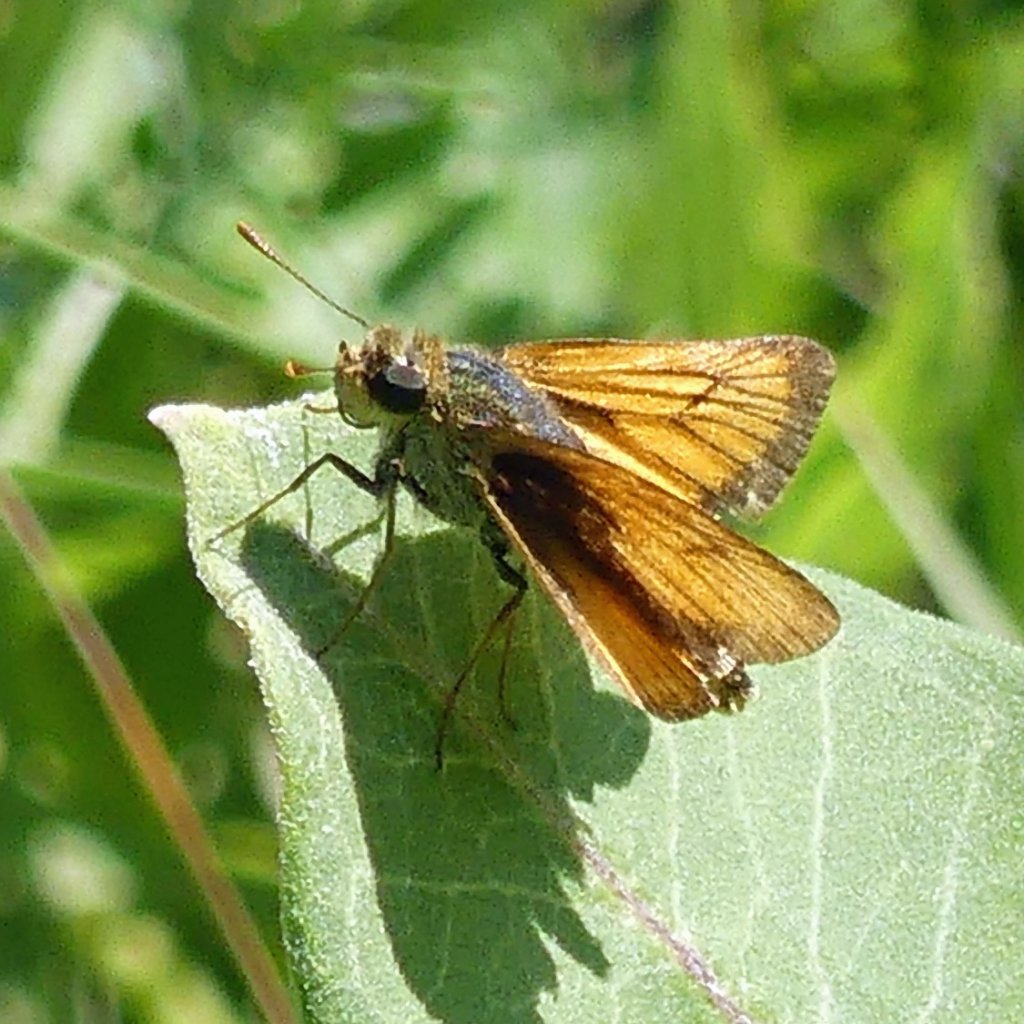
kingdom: Animalia
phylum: Arthropoda
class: Insecta
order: Lepidoptera
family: Hesperiidae
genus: Atrytone
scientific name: Atrytone delaware
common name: Delaware Skipper
